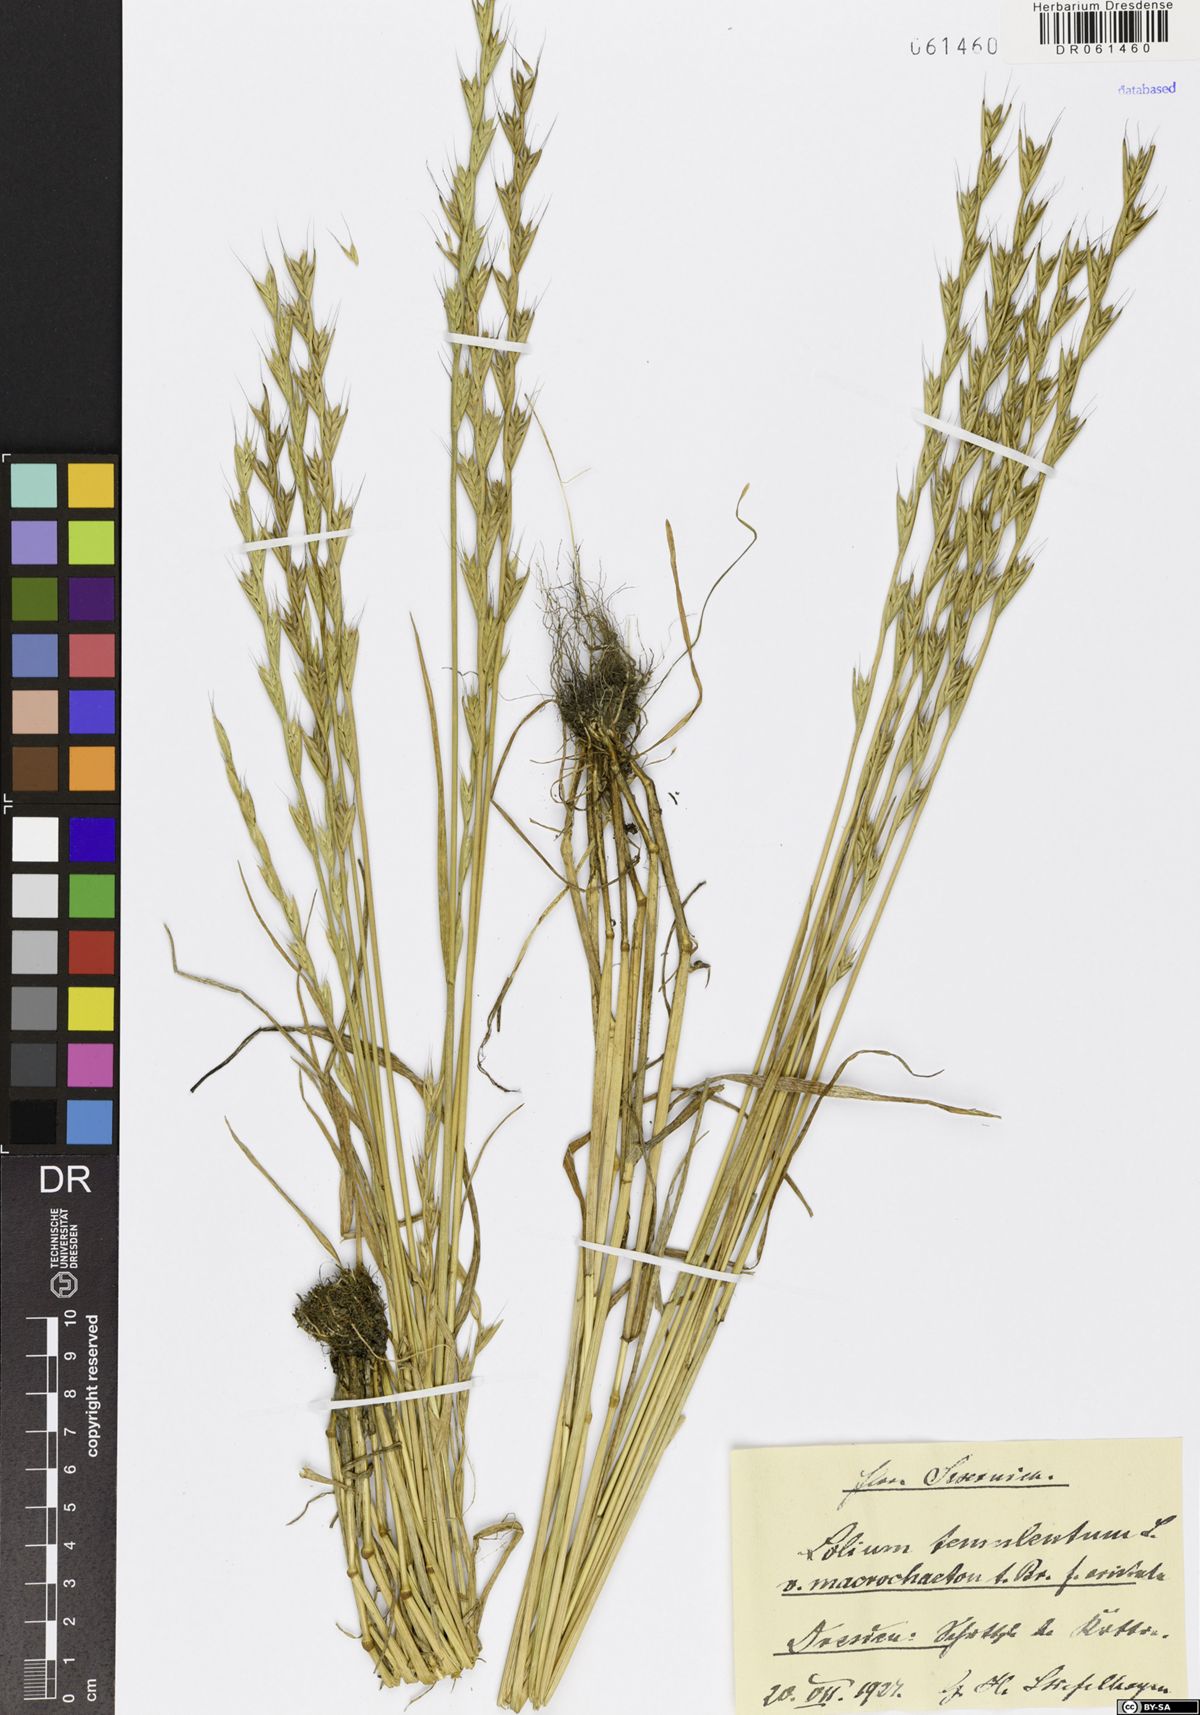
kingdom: Plantae
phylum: Tracheophyta
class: Liliopsida
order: Poales
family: Poaceae
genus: Lolium
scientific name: Lolium temulentum
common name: Darnel
